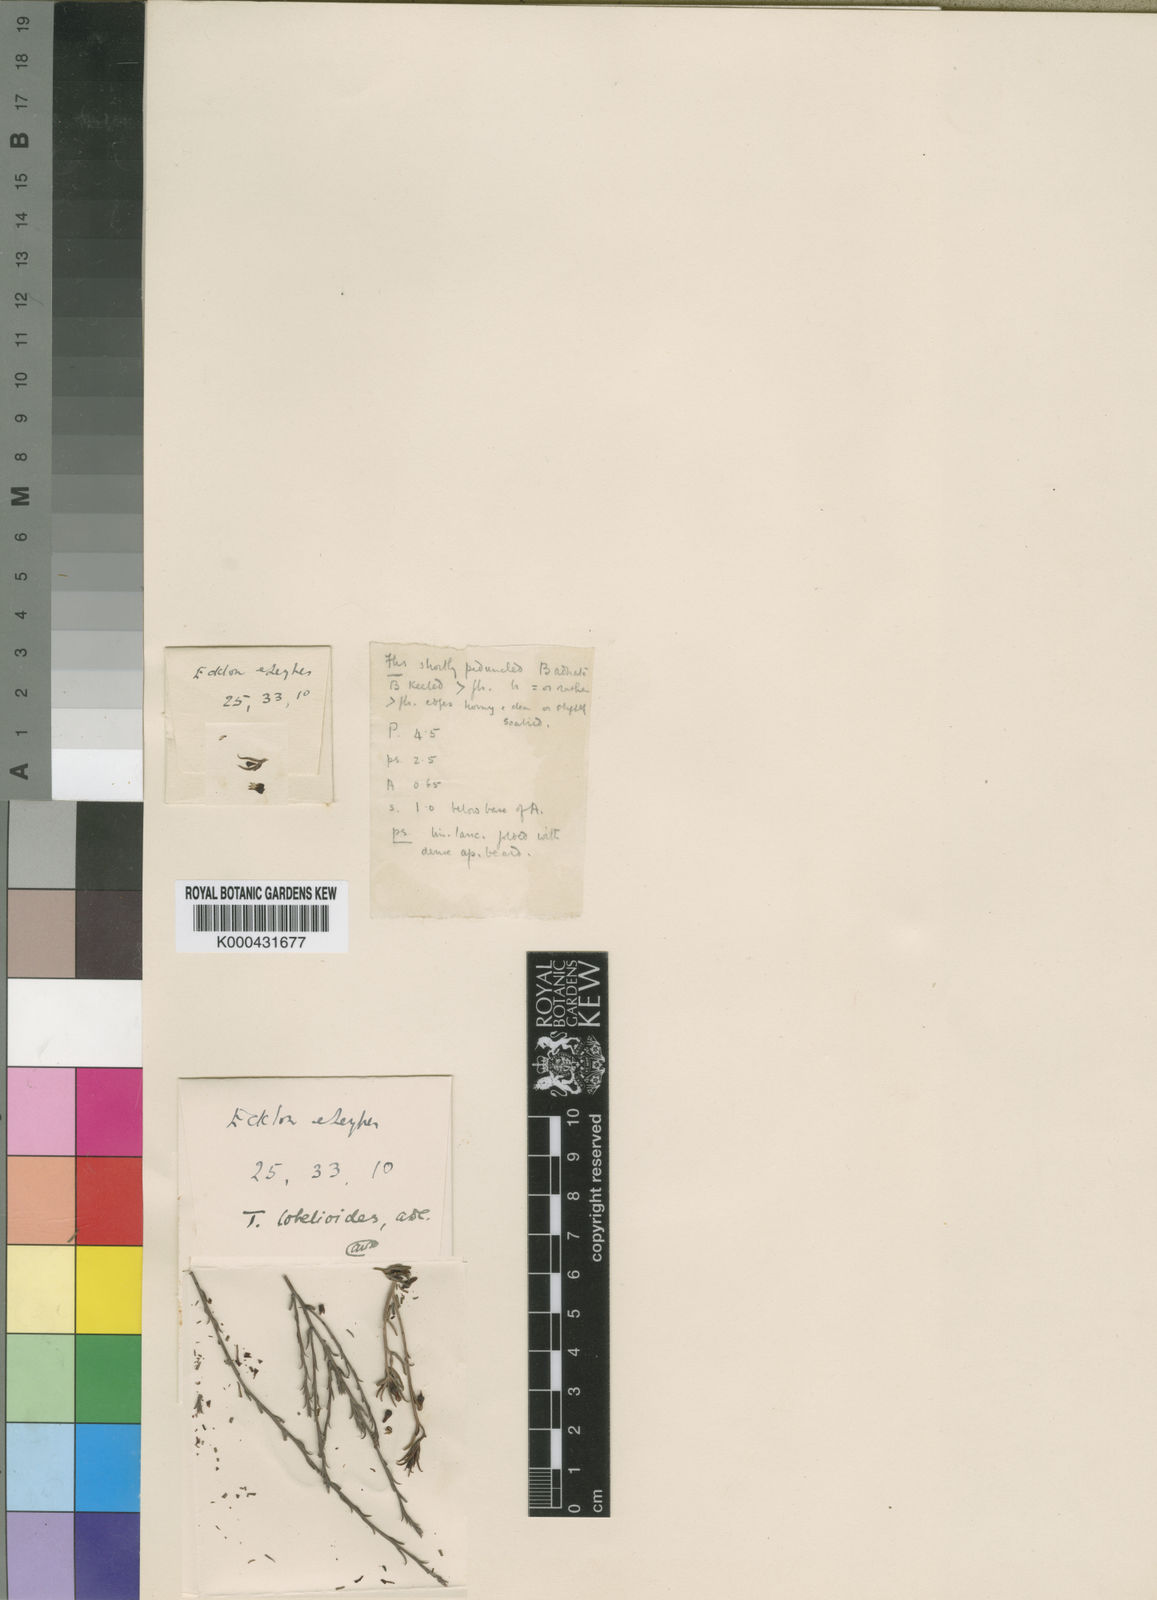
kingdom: Plantae
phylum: Tracheophyta
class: Magnoliopsida
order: Santalales
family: Thesiaceae
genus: Thesium
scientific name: Thesium lobelioides
